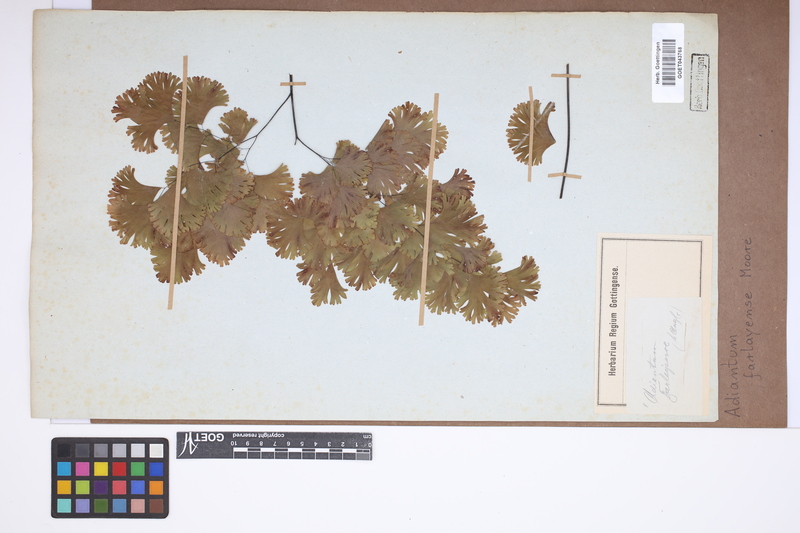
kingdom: Plantae
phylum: Tracheophyta
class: Polypodiopsida
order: Polypodiales
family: Pteridaceae
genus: Adiantum
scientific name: Adiantum tenerum
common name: Fan maidenhair
